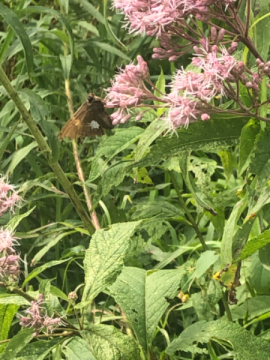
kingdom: Animalia
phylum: Arthropoda
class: Insecta
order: Lepidoptera
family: Hesperiidae
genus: Epargyreus
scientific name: Epargyreus clarus
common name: Silver-spotted Skipper
